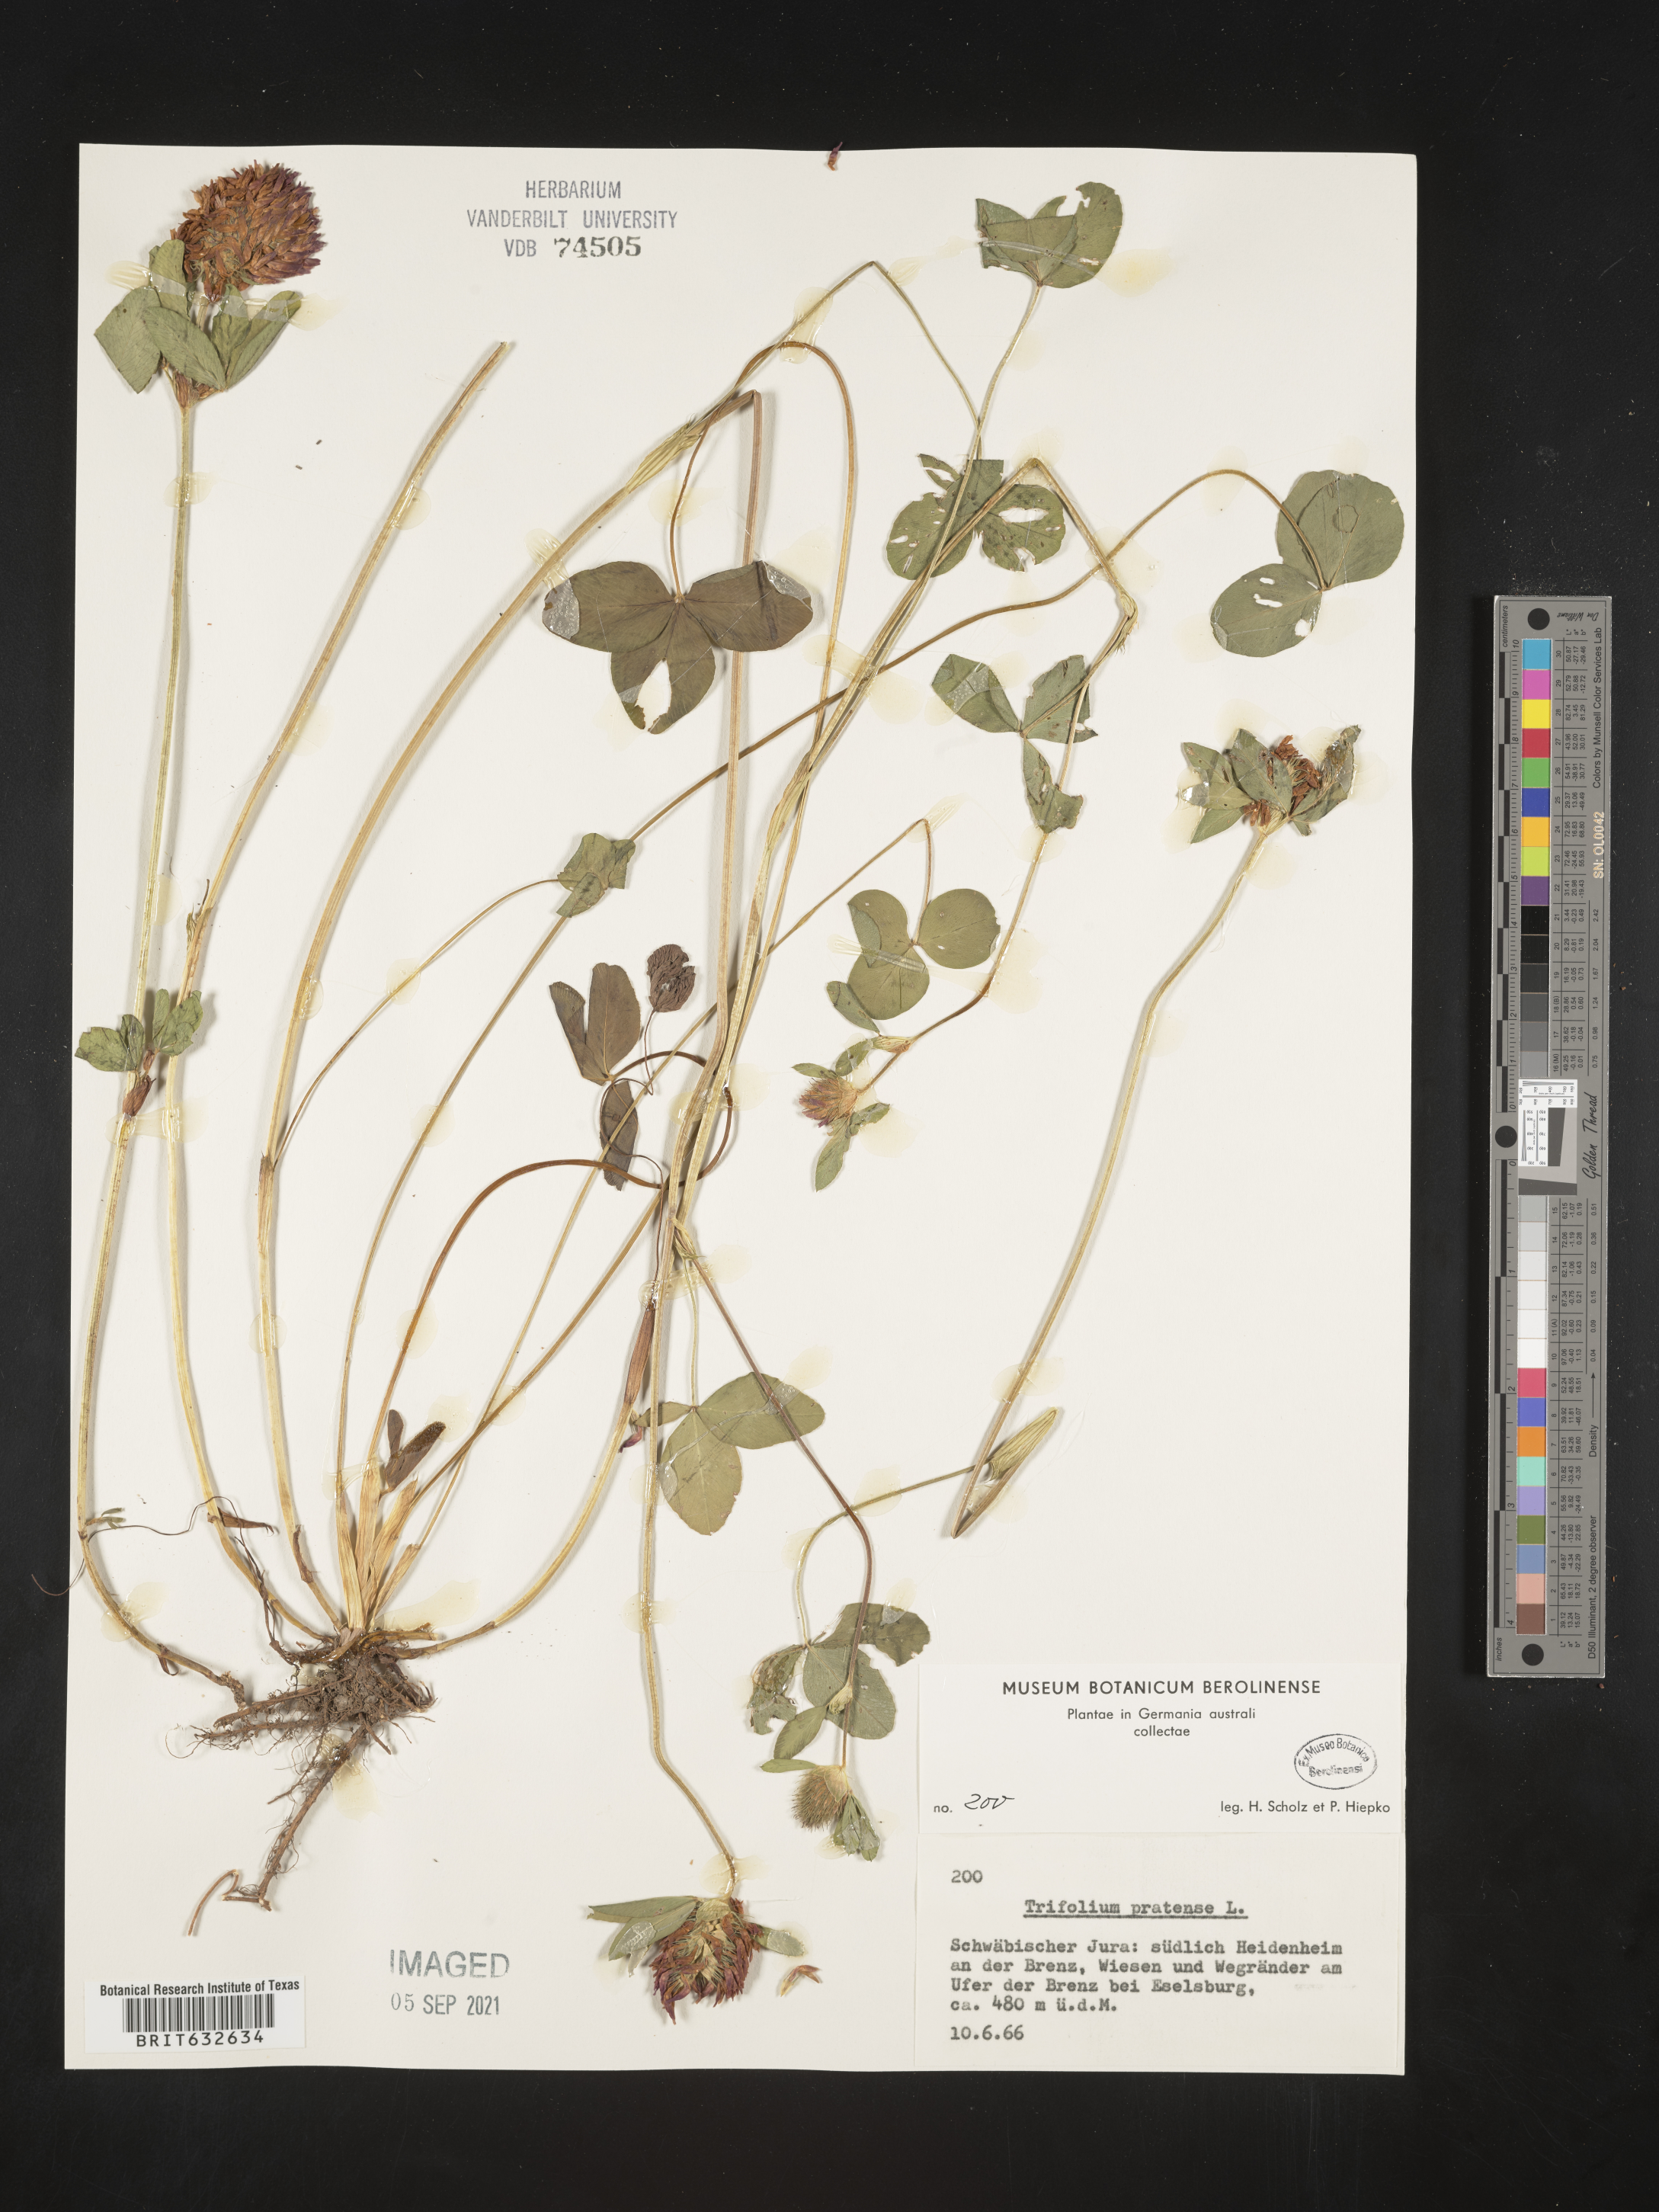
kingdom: Plantae
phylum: Tracheophyta
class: Magnoliopsida
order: Fabales
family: Fabaceae
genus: Trifolium
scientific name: Trifolium
